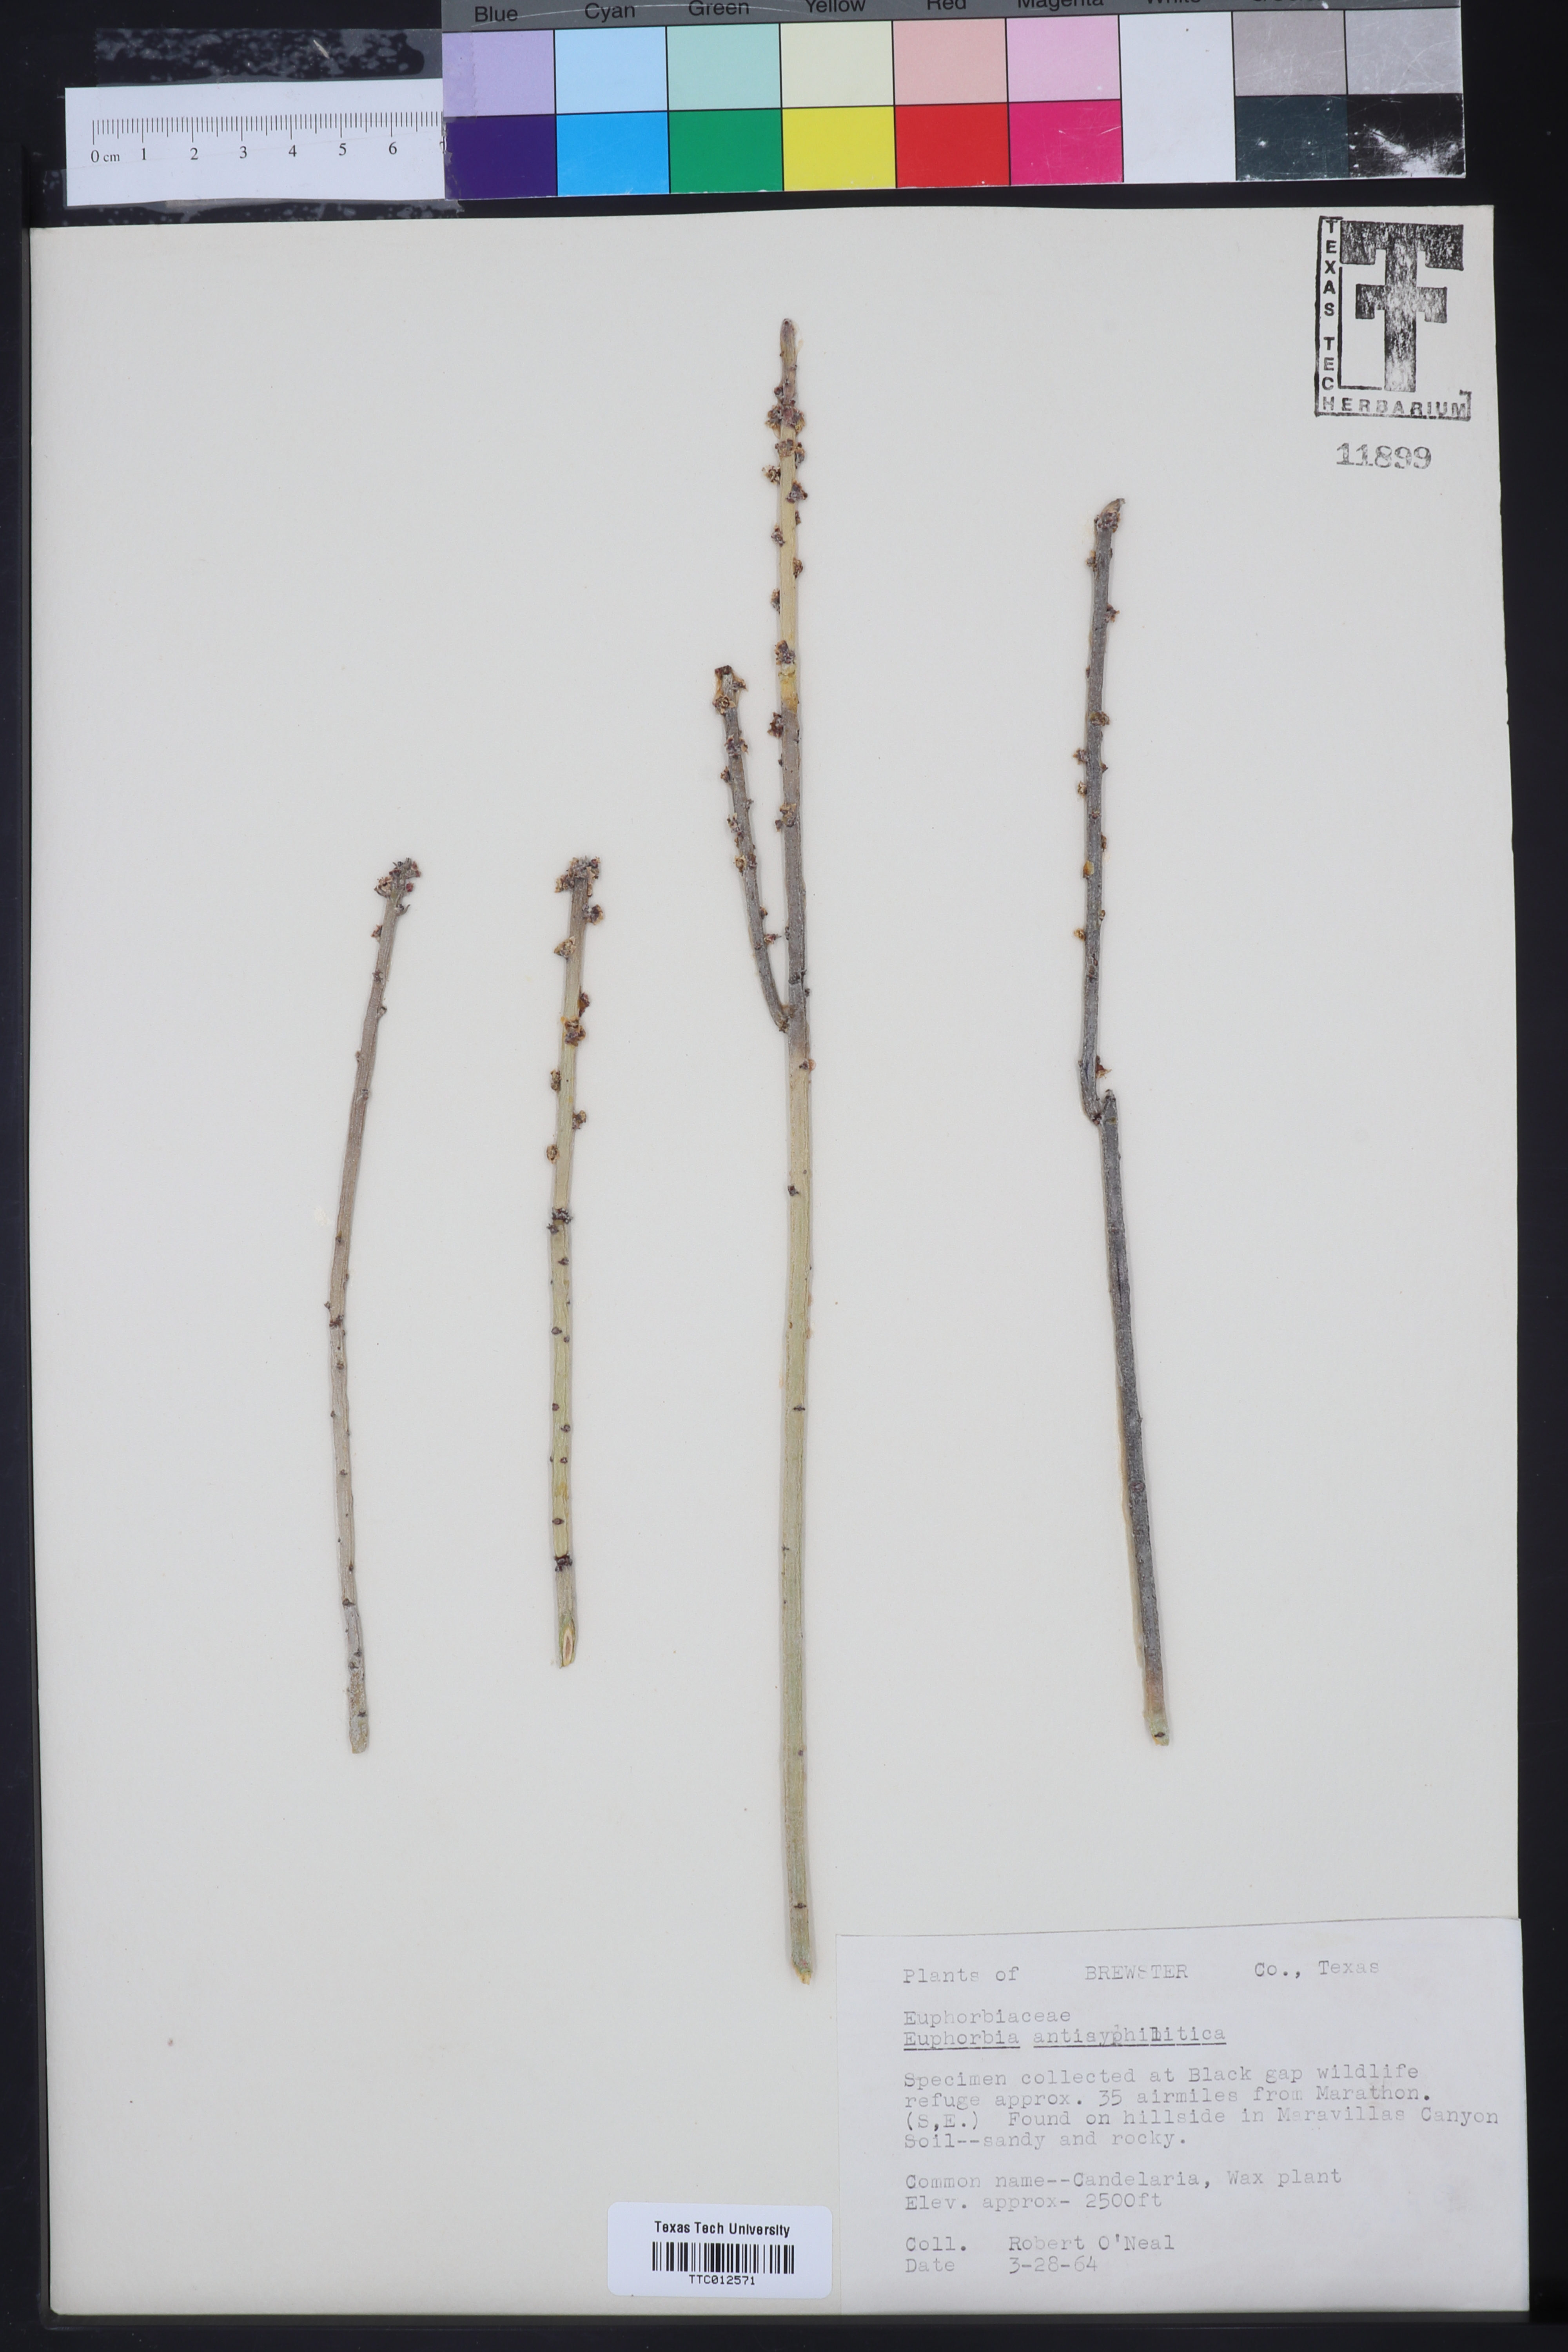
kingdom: Plantae
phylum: Tracheophyta
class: Magnoliopsida
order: Malpighiales
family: Euphorbiaceae
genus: Euphorbia
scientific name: Euphorbia antisyphilitica
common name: Candelilla
